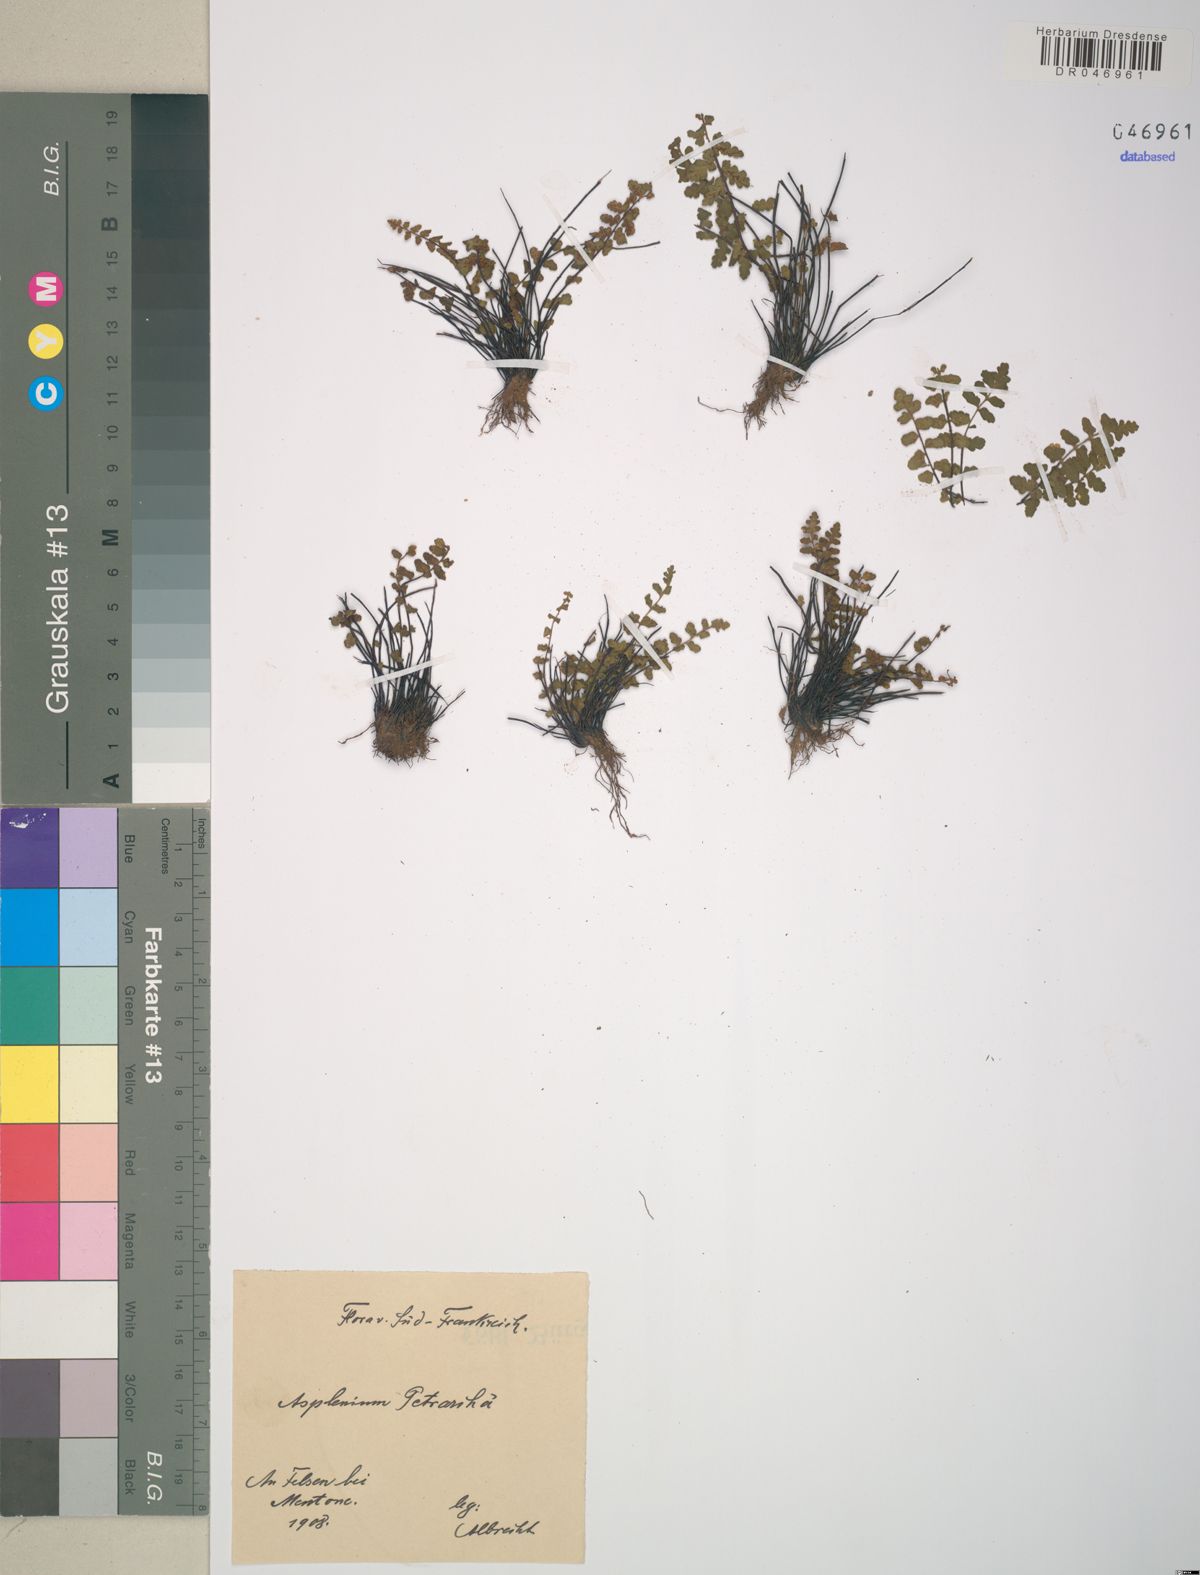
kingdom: Plantae
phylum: Tracheophyta
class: Polypodiopsida
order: Polypodiales
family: Aspleniaceae
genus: Asplenium
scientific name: Asplenium petrarchae
